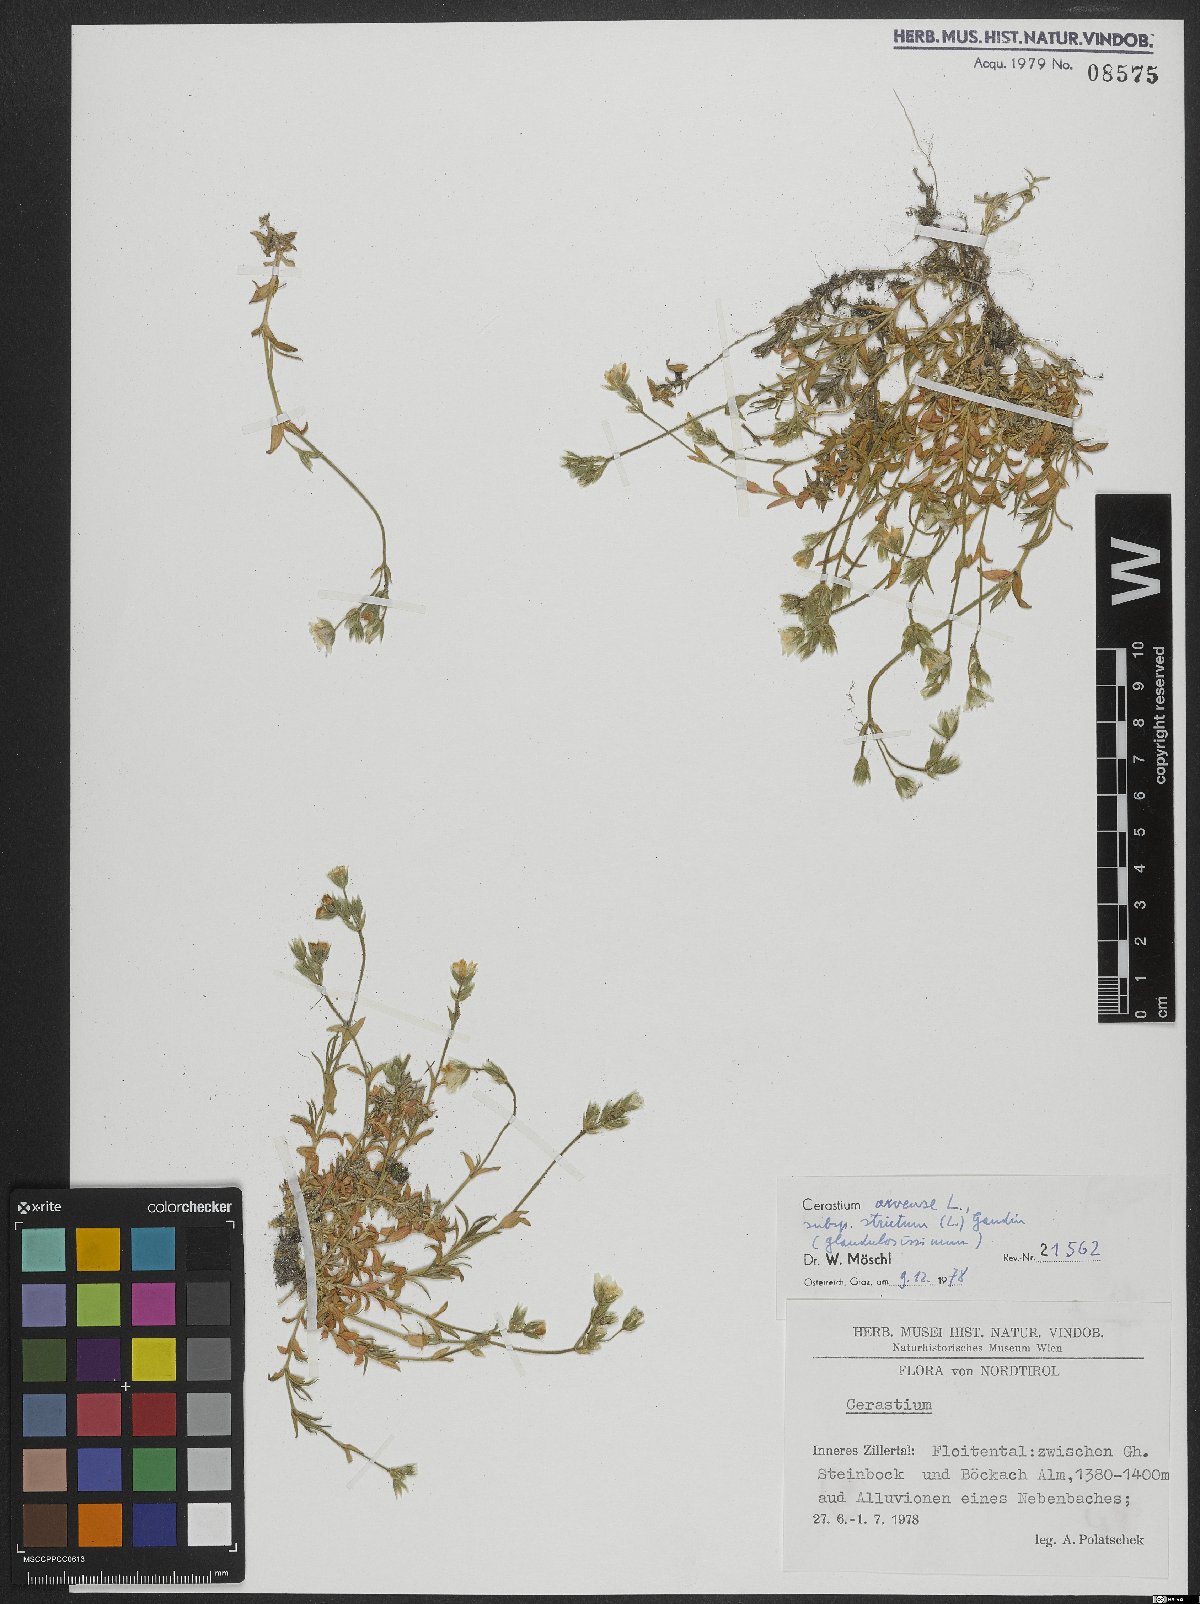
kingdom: Plantae
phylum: Tracheophyta
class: Magnoliopsida
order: Caryophyllales
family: Caryophyllaceae
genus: Cerastium
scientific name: Cerastium elongatum
